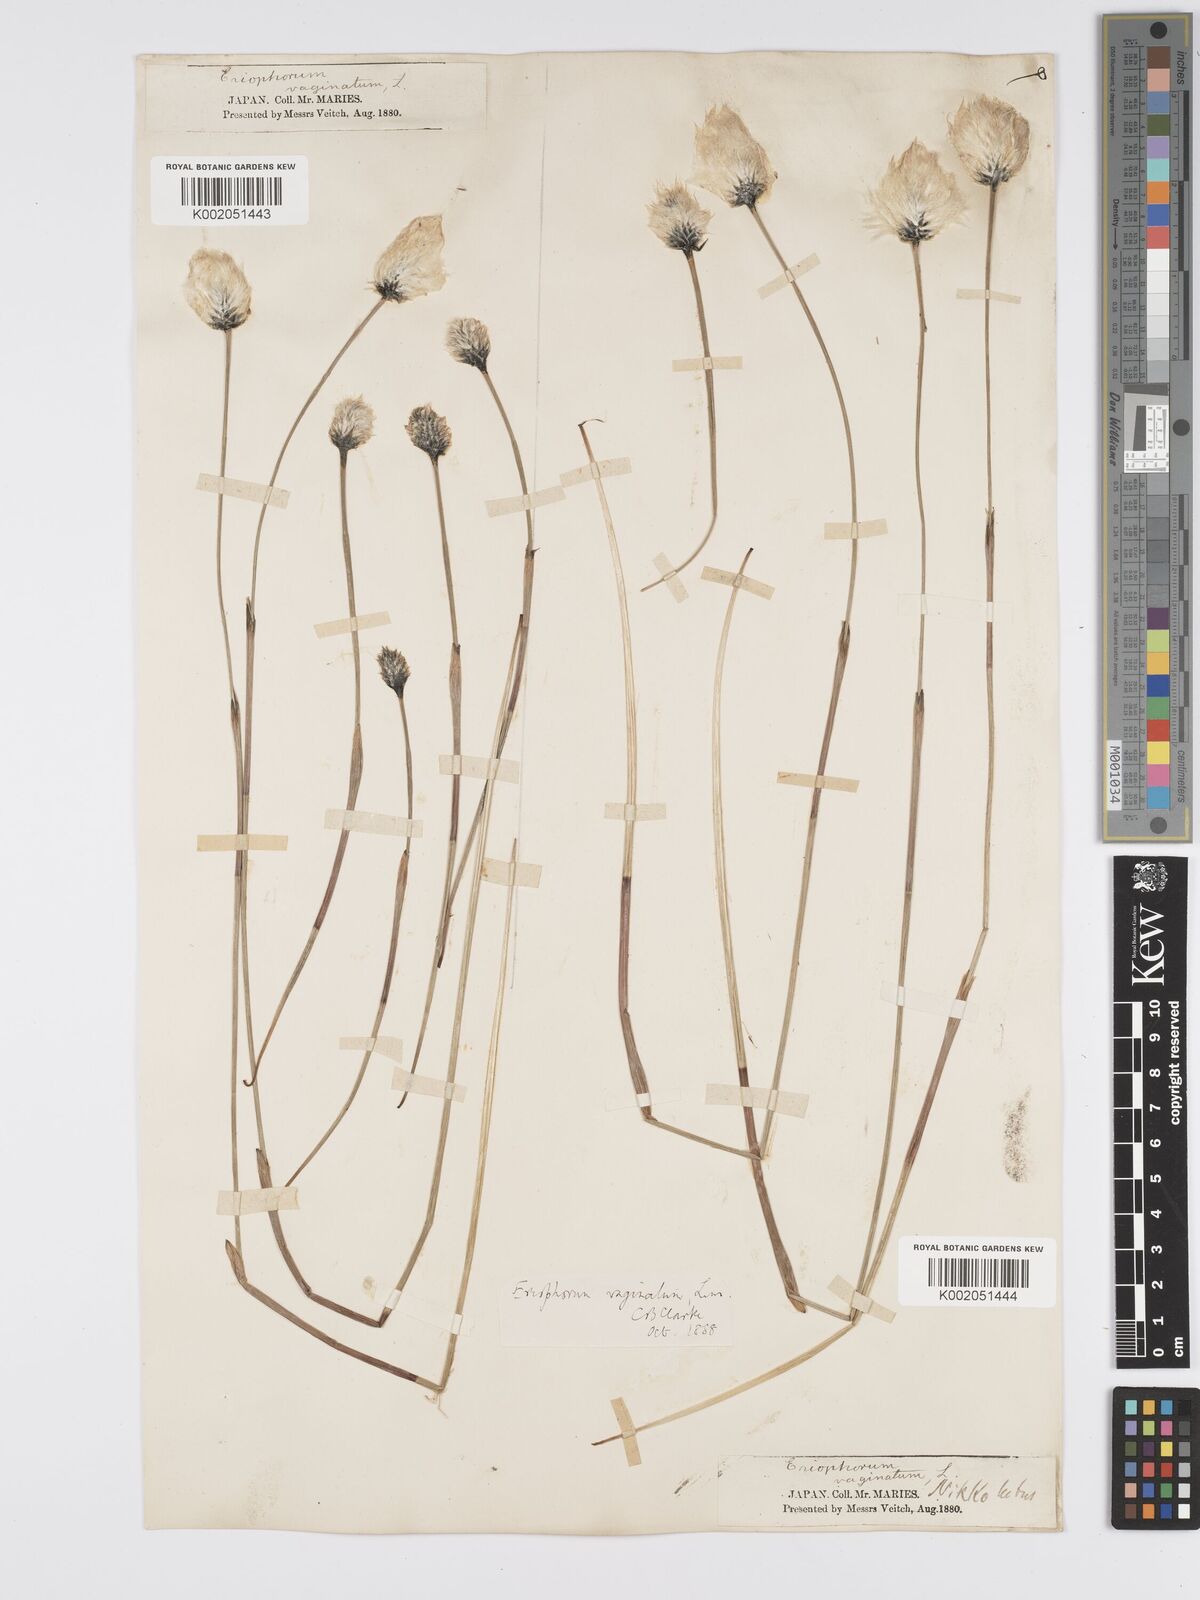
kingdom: Plantae
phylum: Tracheophyta
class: Liliopsida
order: Poales
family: Cyperaceae
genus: Eriophorum
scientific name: Eriophorum vaginatum
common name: Hare's-tail cottongrass
